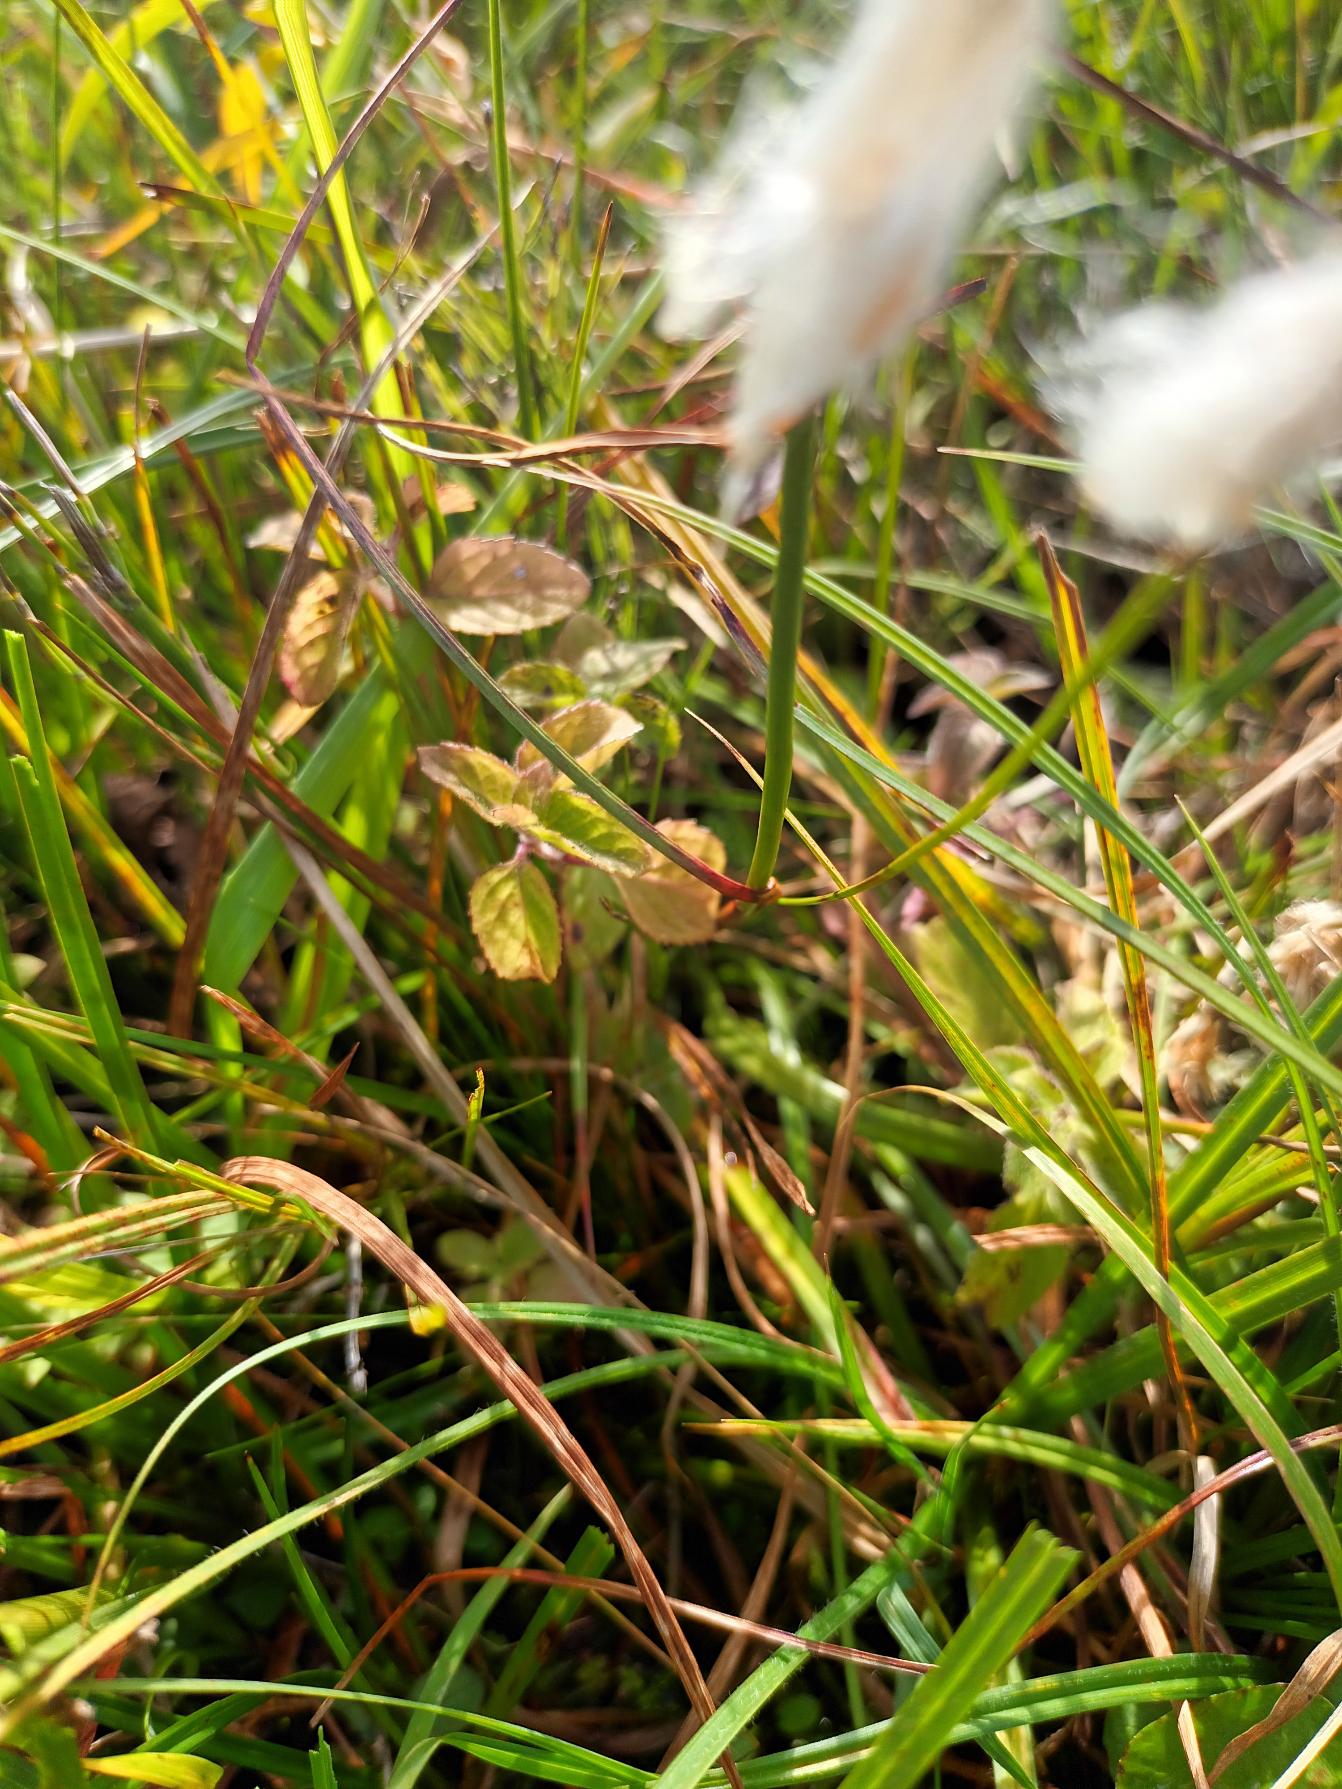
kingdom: Plantae
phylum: Tracheophyta
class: Liliopsida
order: Poales
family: Cyperaceae
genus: Eriophorum
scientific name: Eriophorum angustifolium
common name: Smalbladet kæruld
